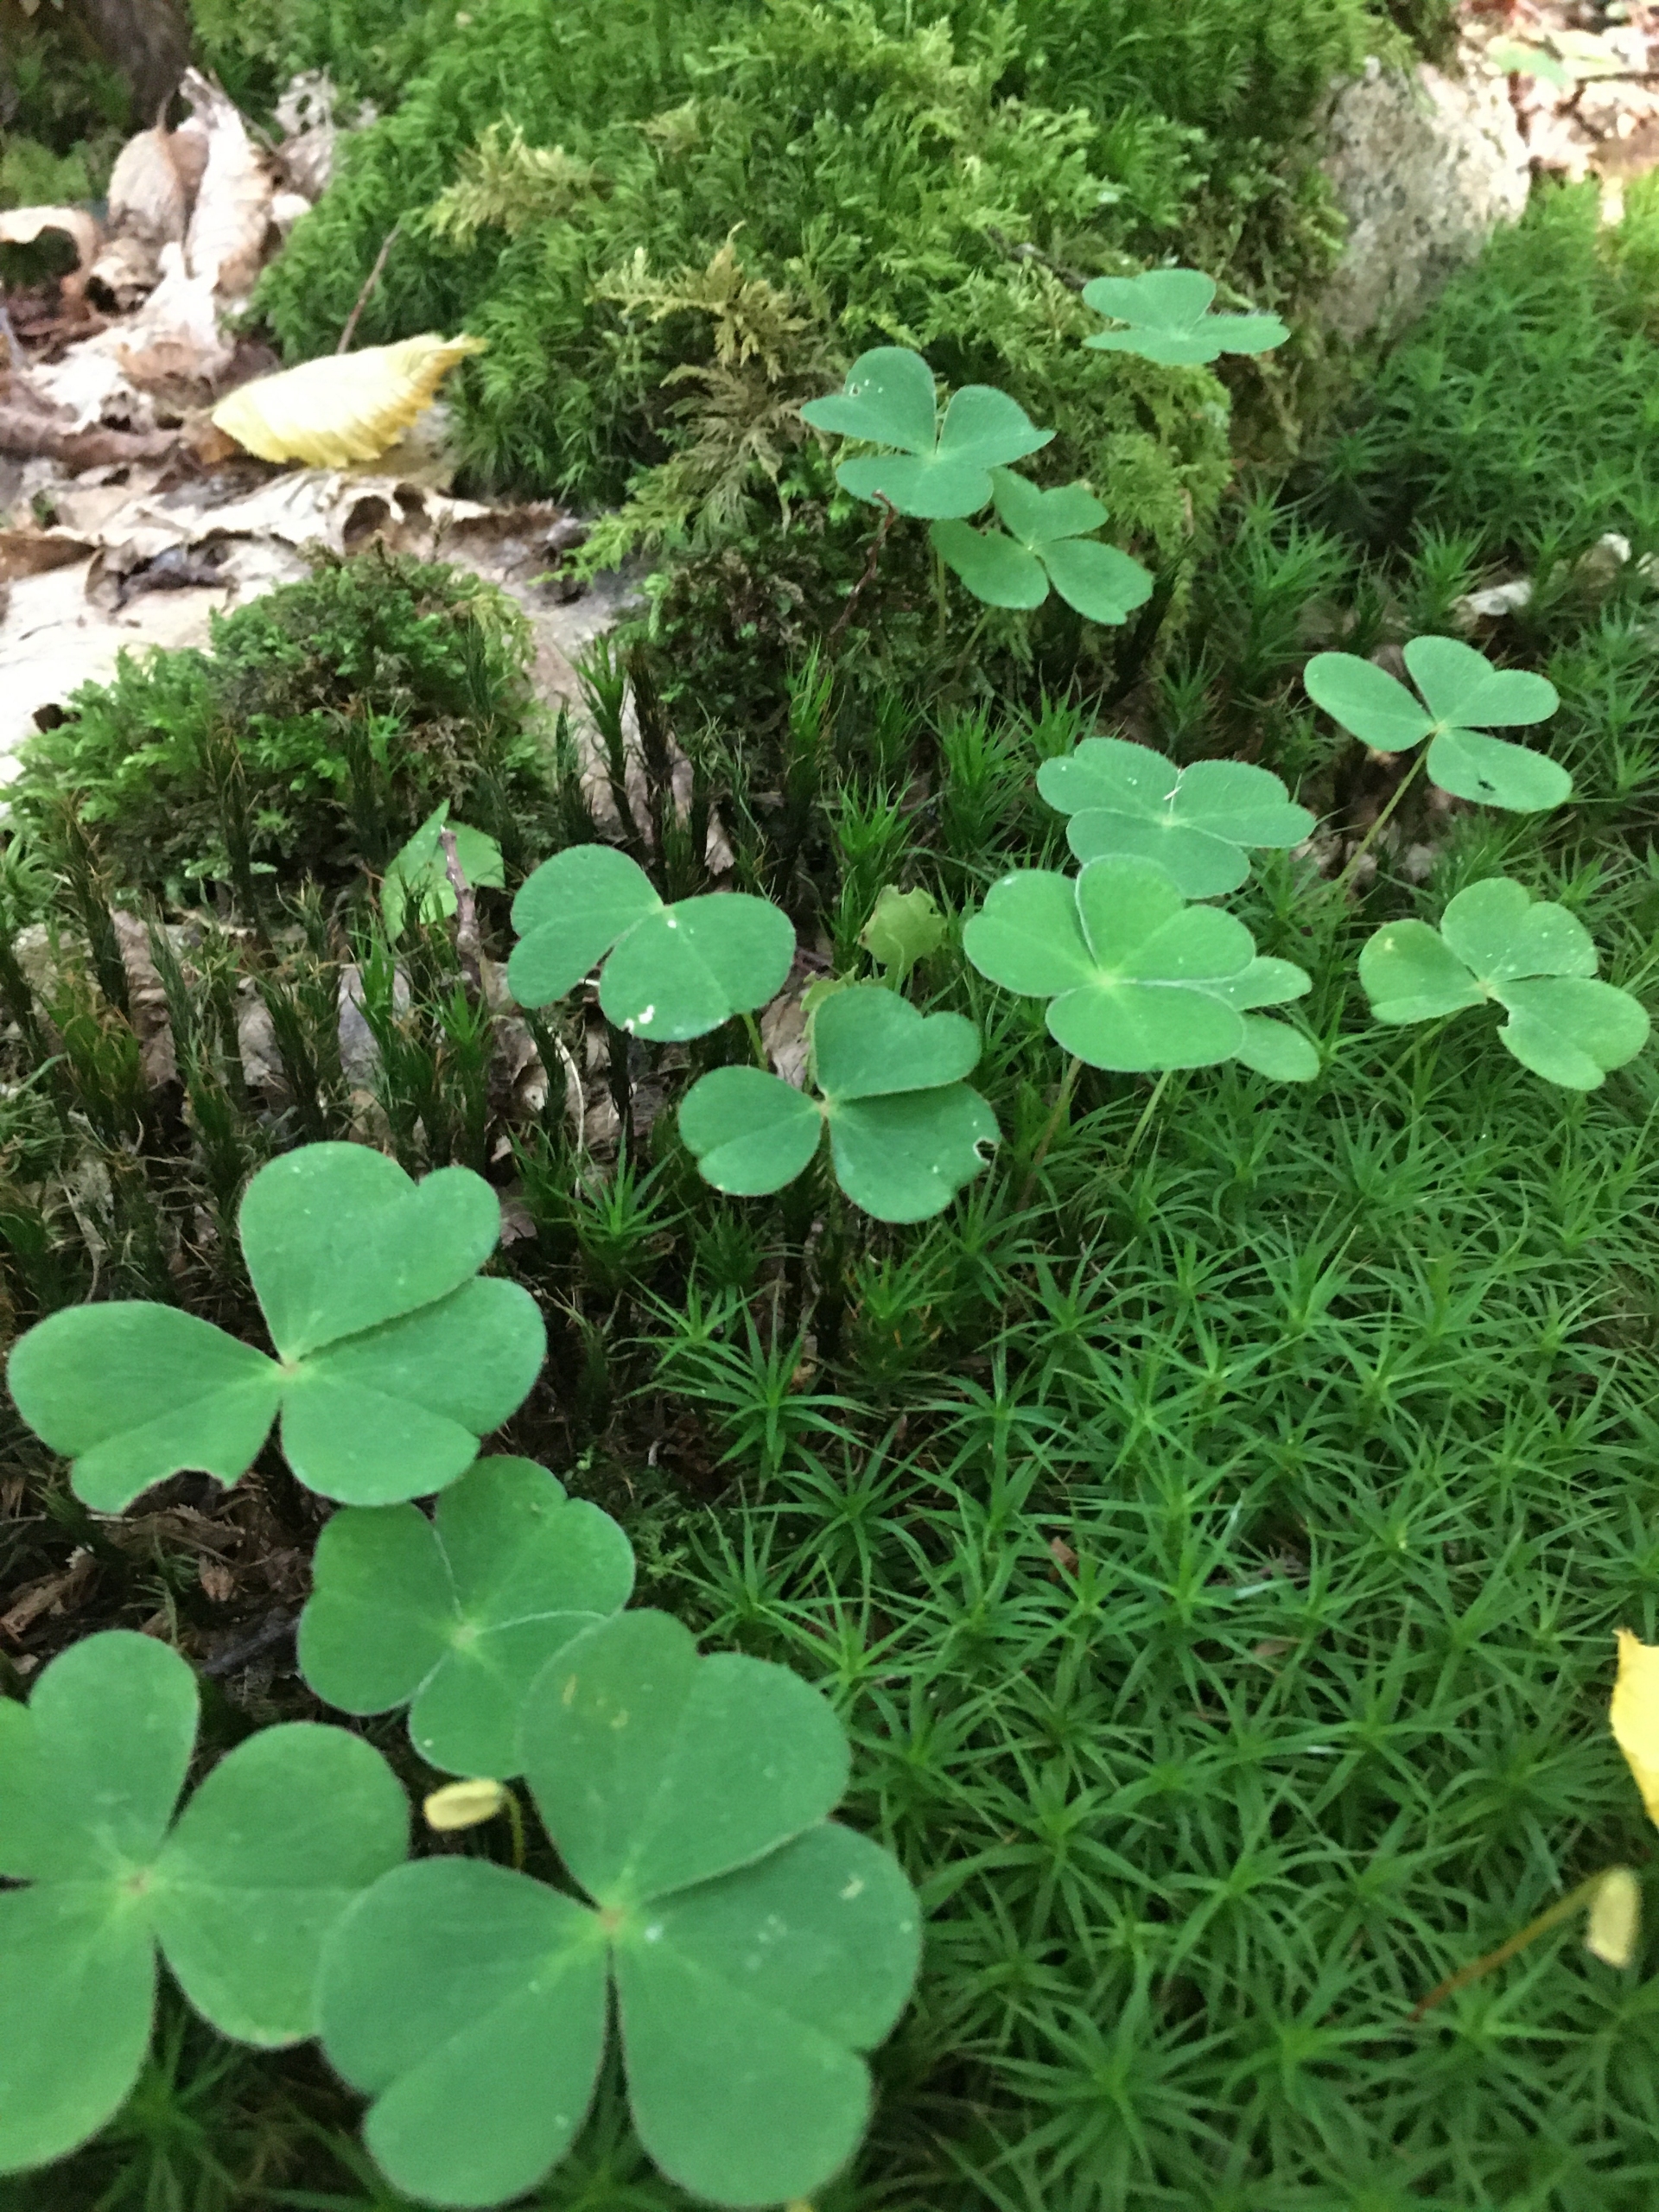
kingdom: Plantae
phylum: Tracheophyta
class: Magnoliopsida
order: Oxalidales
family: Oxalidaceae
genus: Oxalis
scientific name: Oxalis acetosella
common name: Skovsyre
